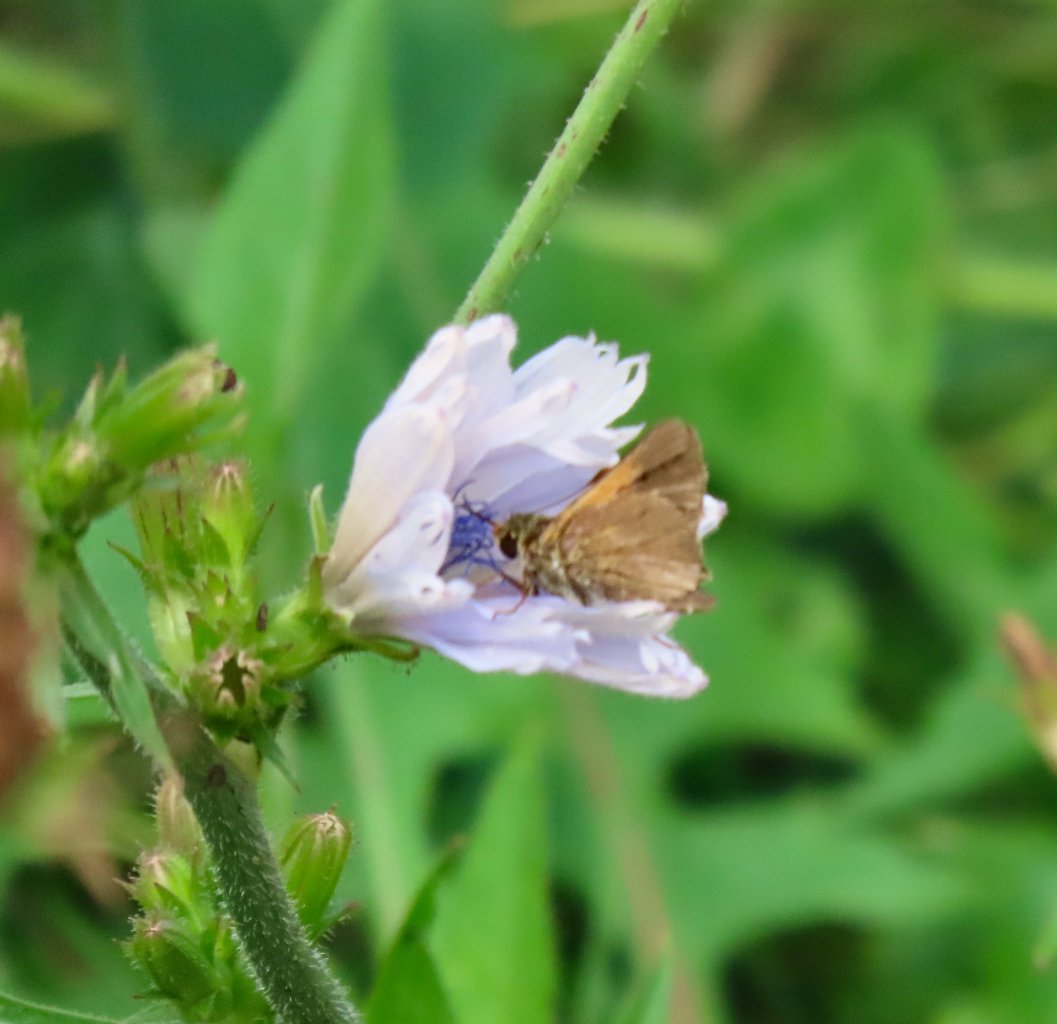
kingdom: Animalia
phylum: Arthropoda
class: Insecta
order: Lepidoptera
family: Hesperiidae
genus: Polites
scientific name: Polites themistocles
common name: Tawny-edged Skipper
